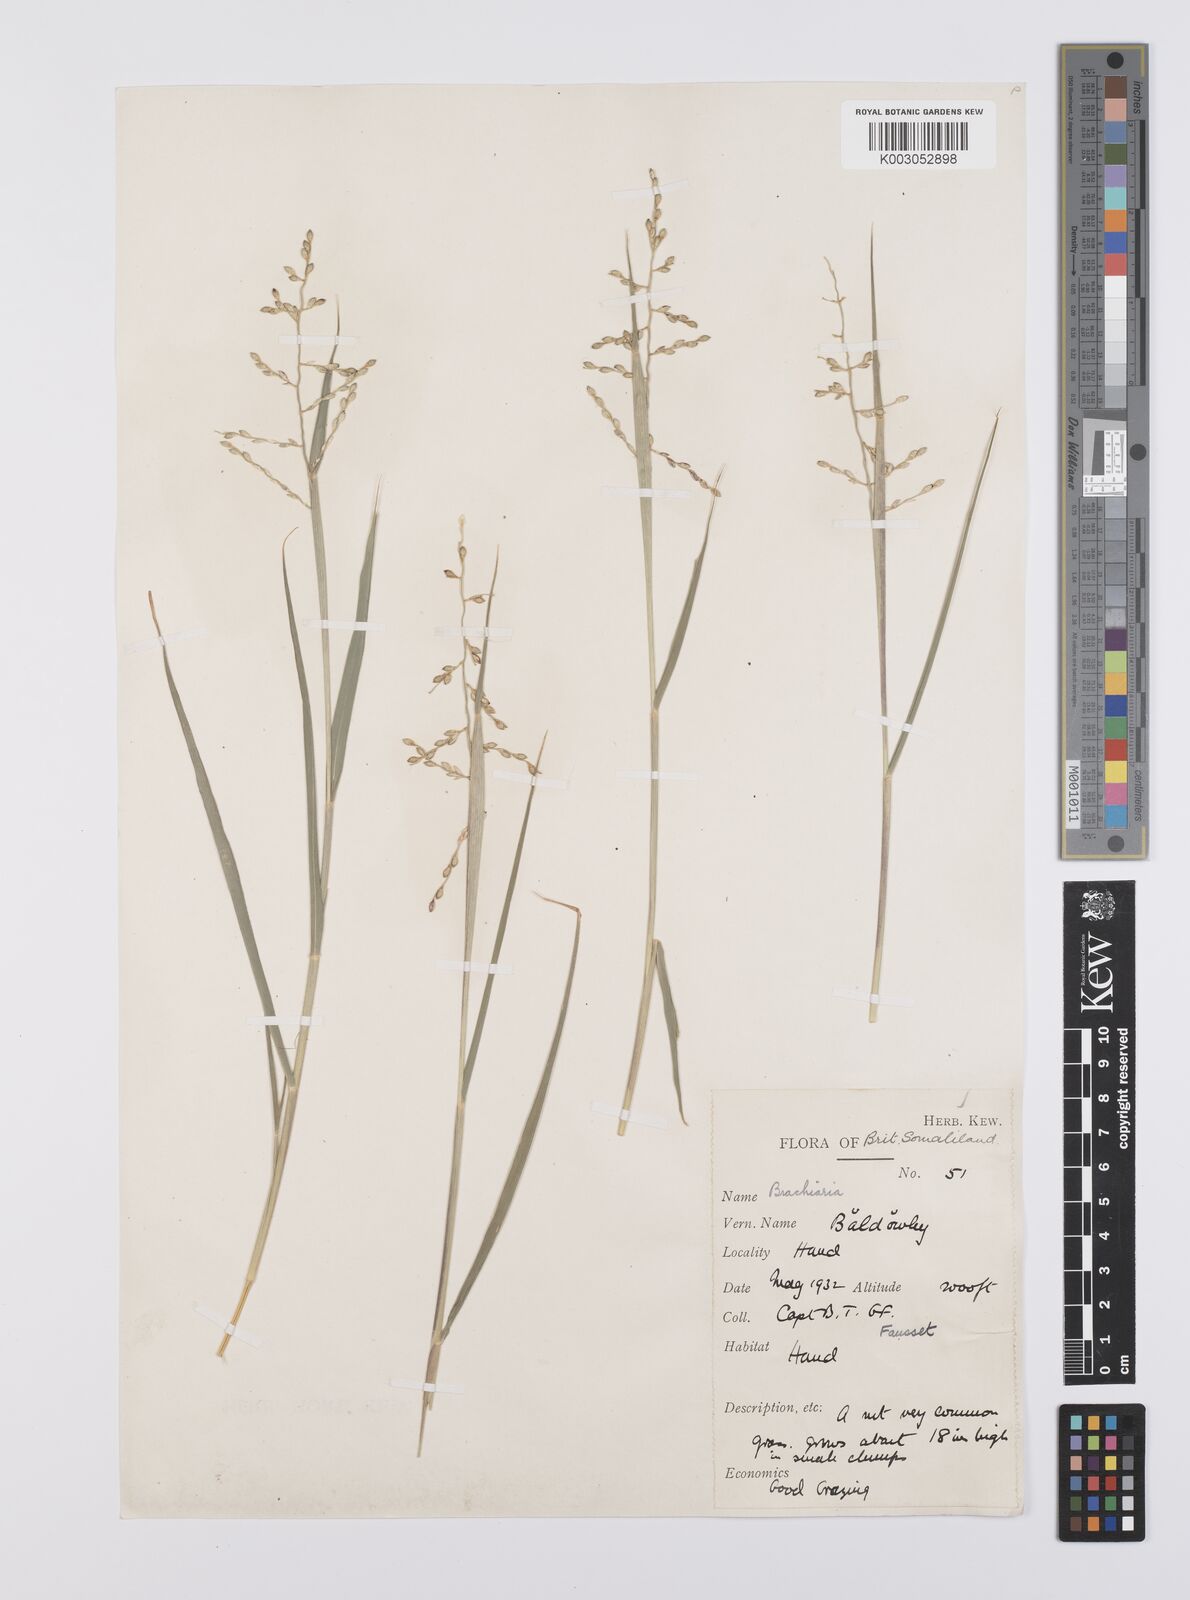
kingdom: Plantae
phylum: Tracheophyta
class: Liliopsida
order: Poales
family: Poaceae
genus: Urochloa
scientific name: Urochloa ovalis
